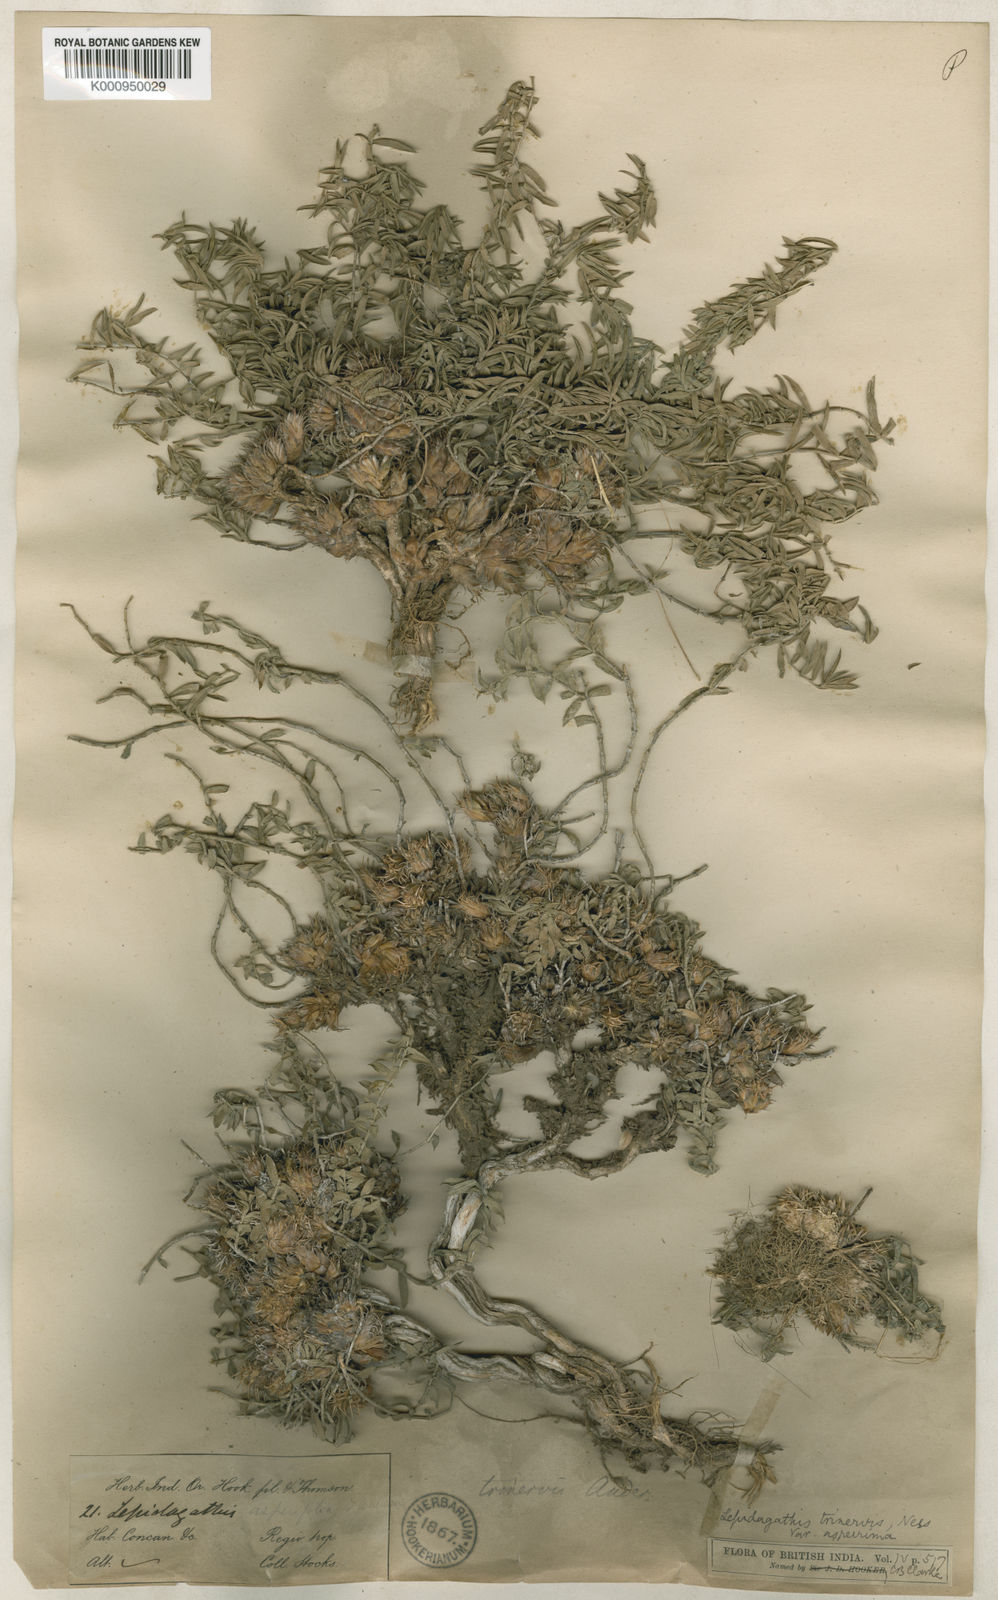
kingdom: Plantae
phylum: Tracheophyta
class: Magnoliopsida
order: Lamiales
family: Acanthaceae
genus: Lepidagathis
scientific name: Lepidagathis trinervis
